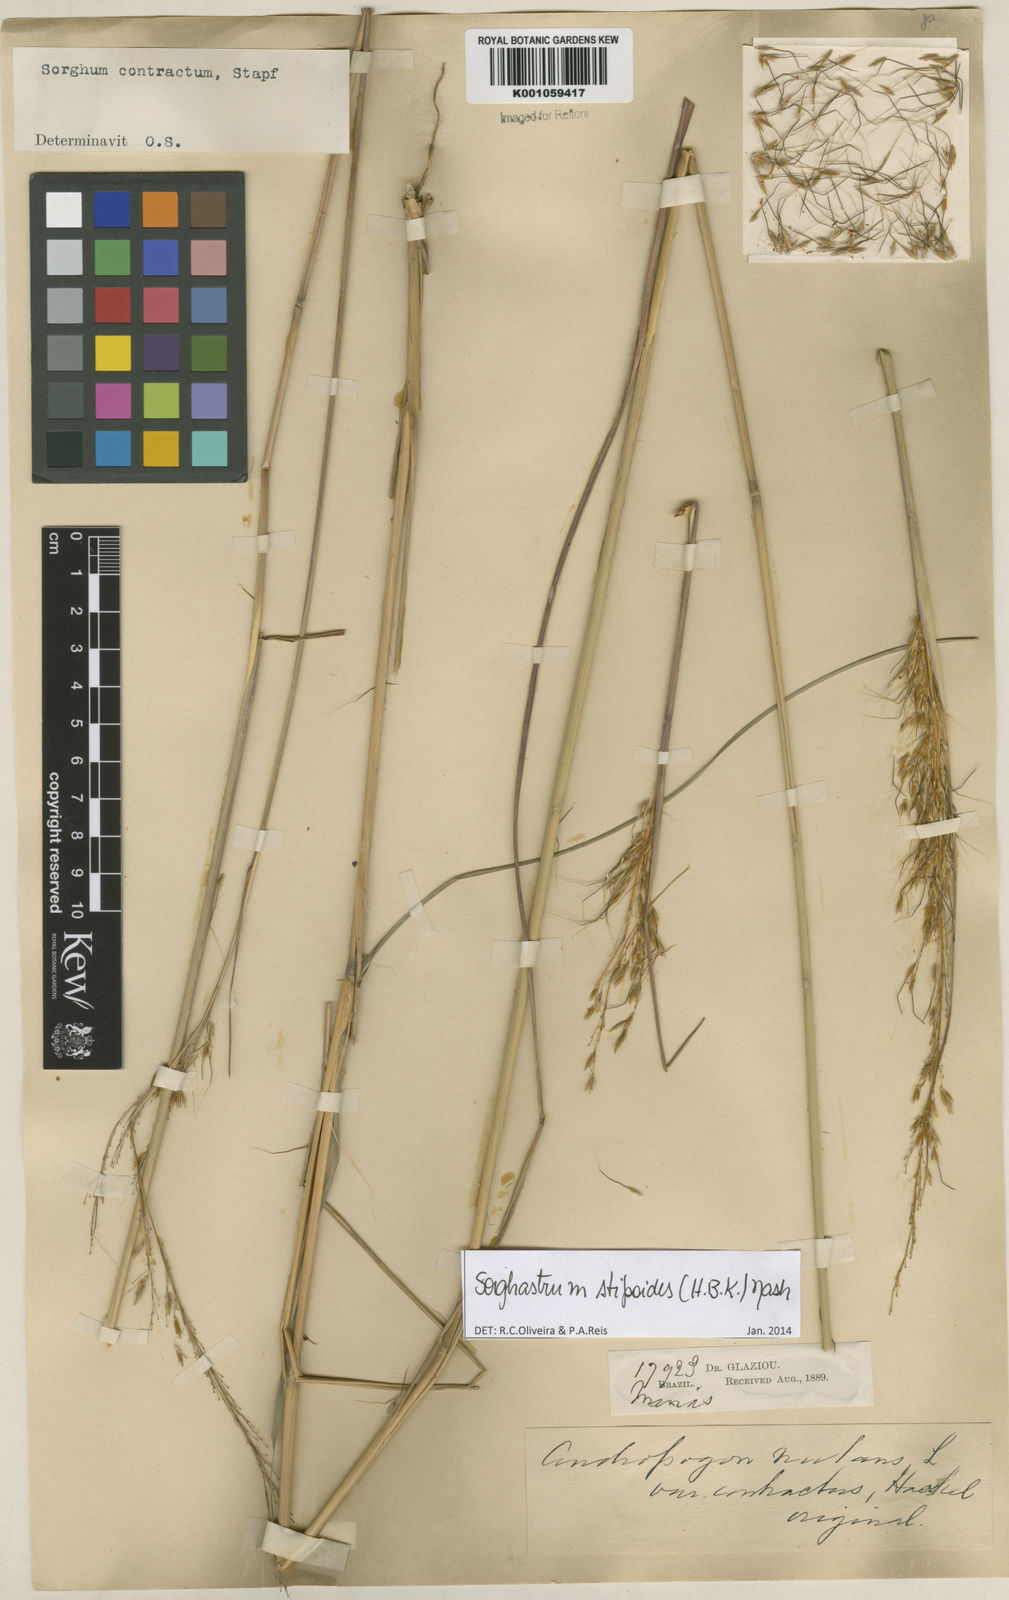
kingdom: Plantae
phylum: Tracheophyta
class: Liliopsida
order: Poales
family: Poaceae
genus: Sorghastrum
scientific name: Sorghastrum stipoides
